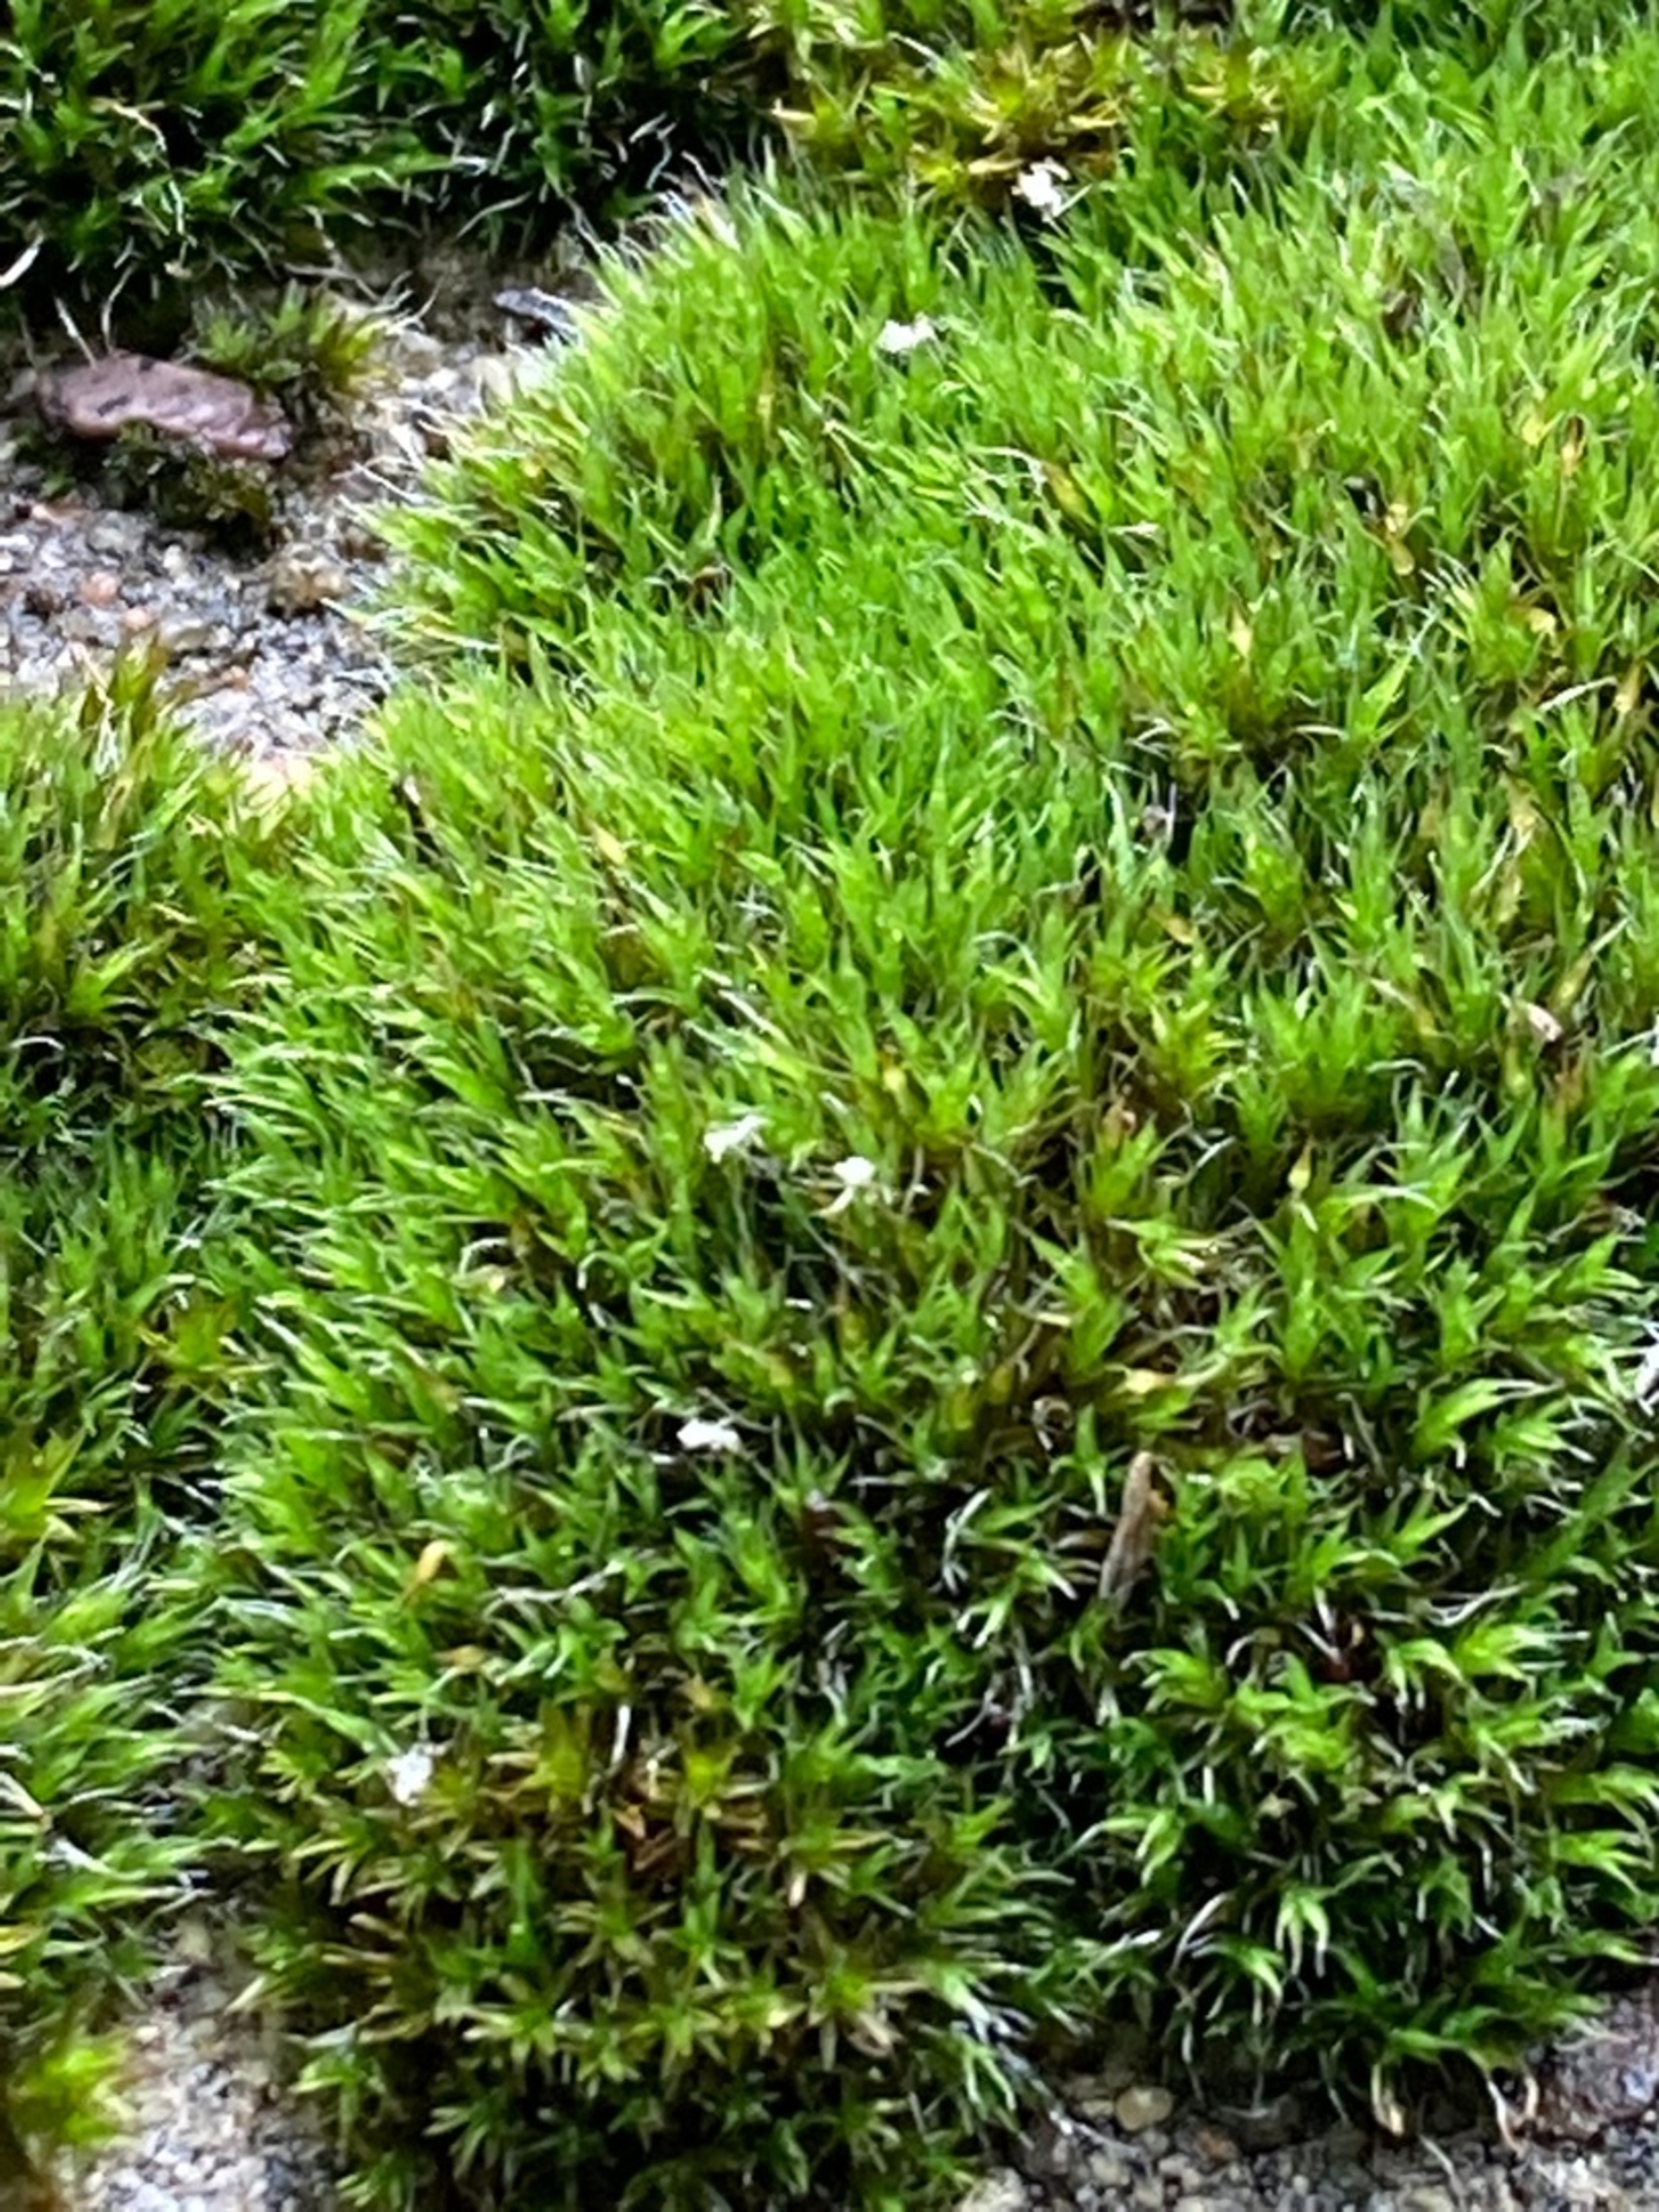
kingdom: Plantae
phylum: Bryophyta
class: Bryopsida
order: Grimmiales
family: Grimmiaceae
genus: Grimmia
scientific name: Grimmia pulvinata
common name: Pude-gråmos
